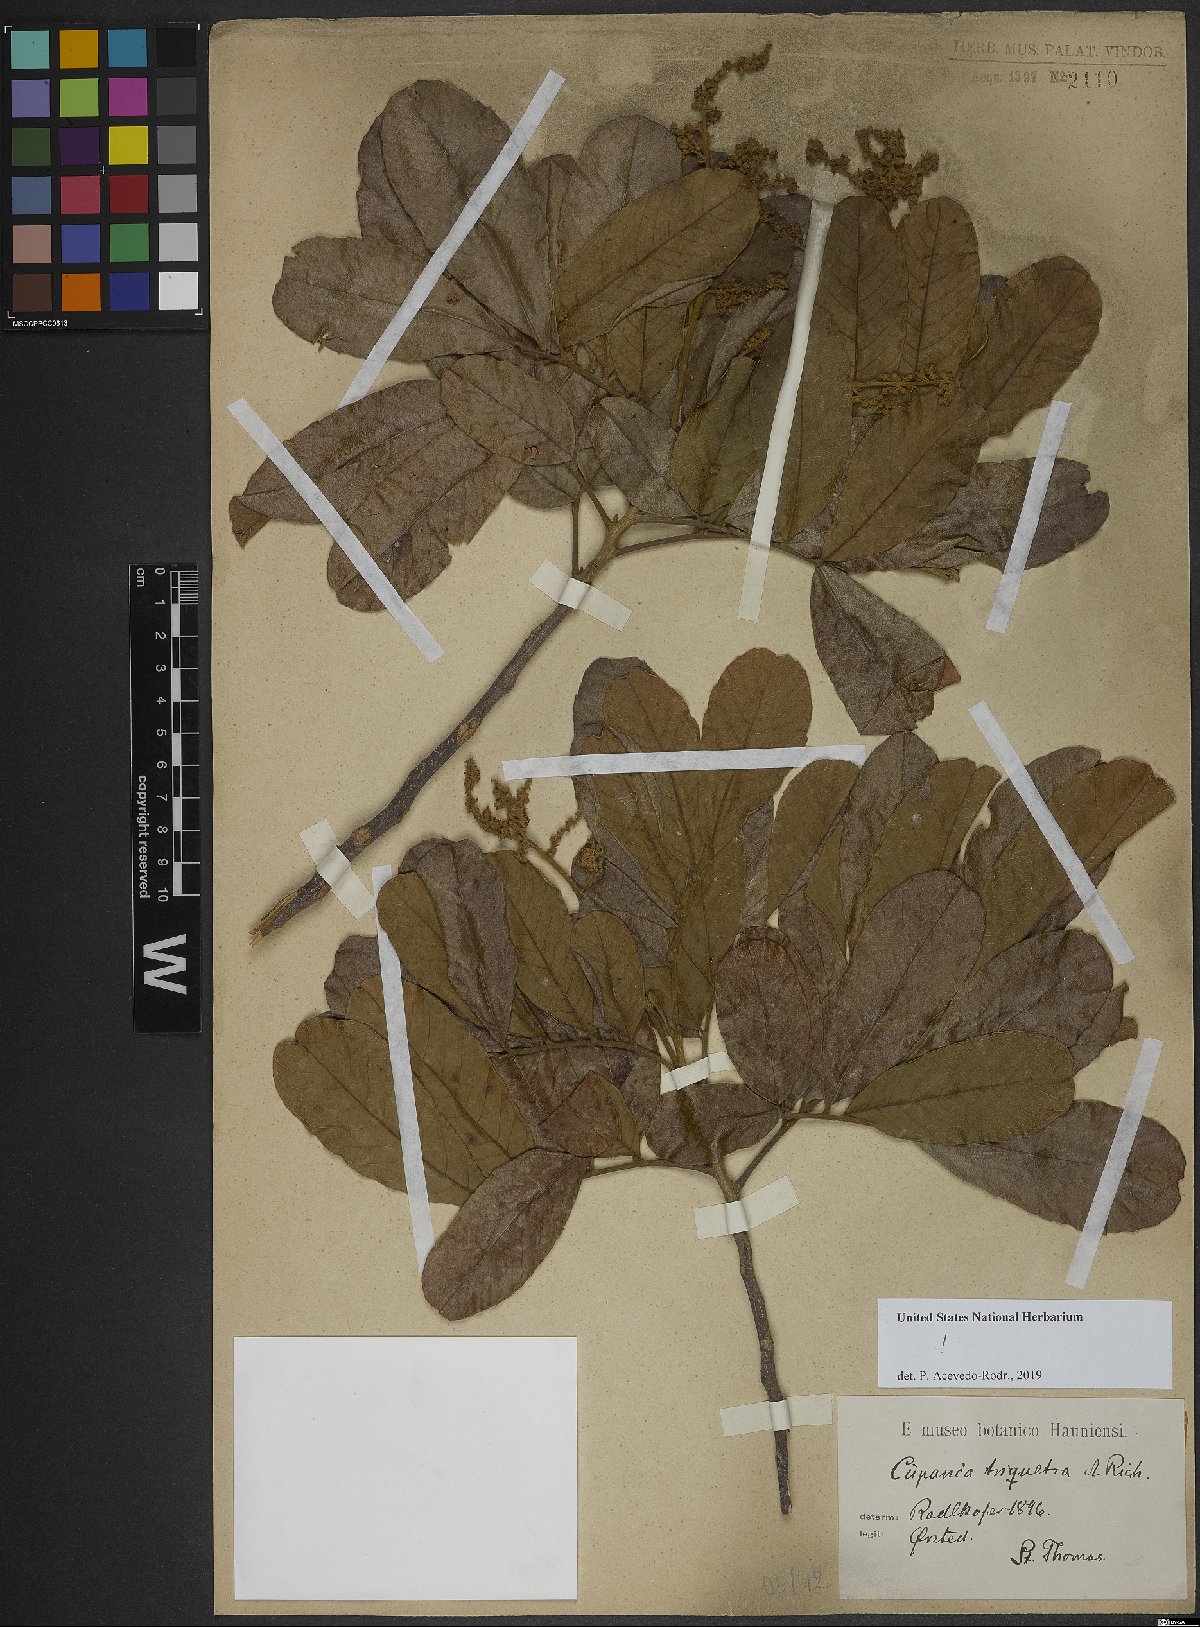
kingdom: Plantae
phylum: Tracheophyta
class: Magnoliopsida
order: Sapindales
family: Sapindaceae
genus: Cupania
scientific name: Cupania triquetra
